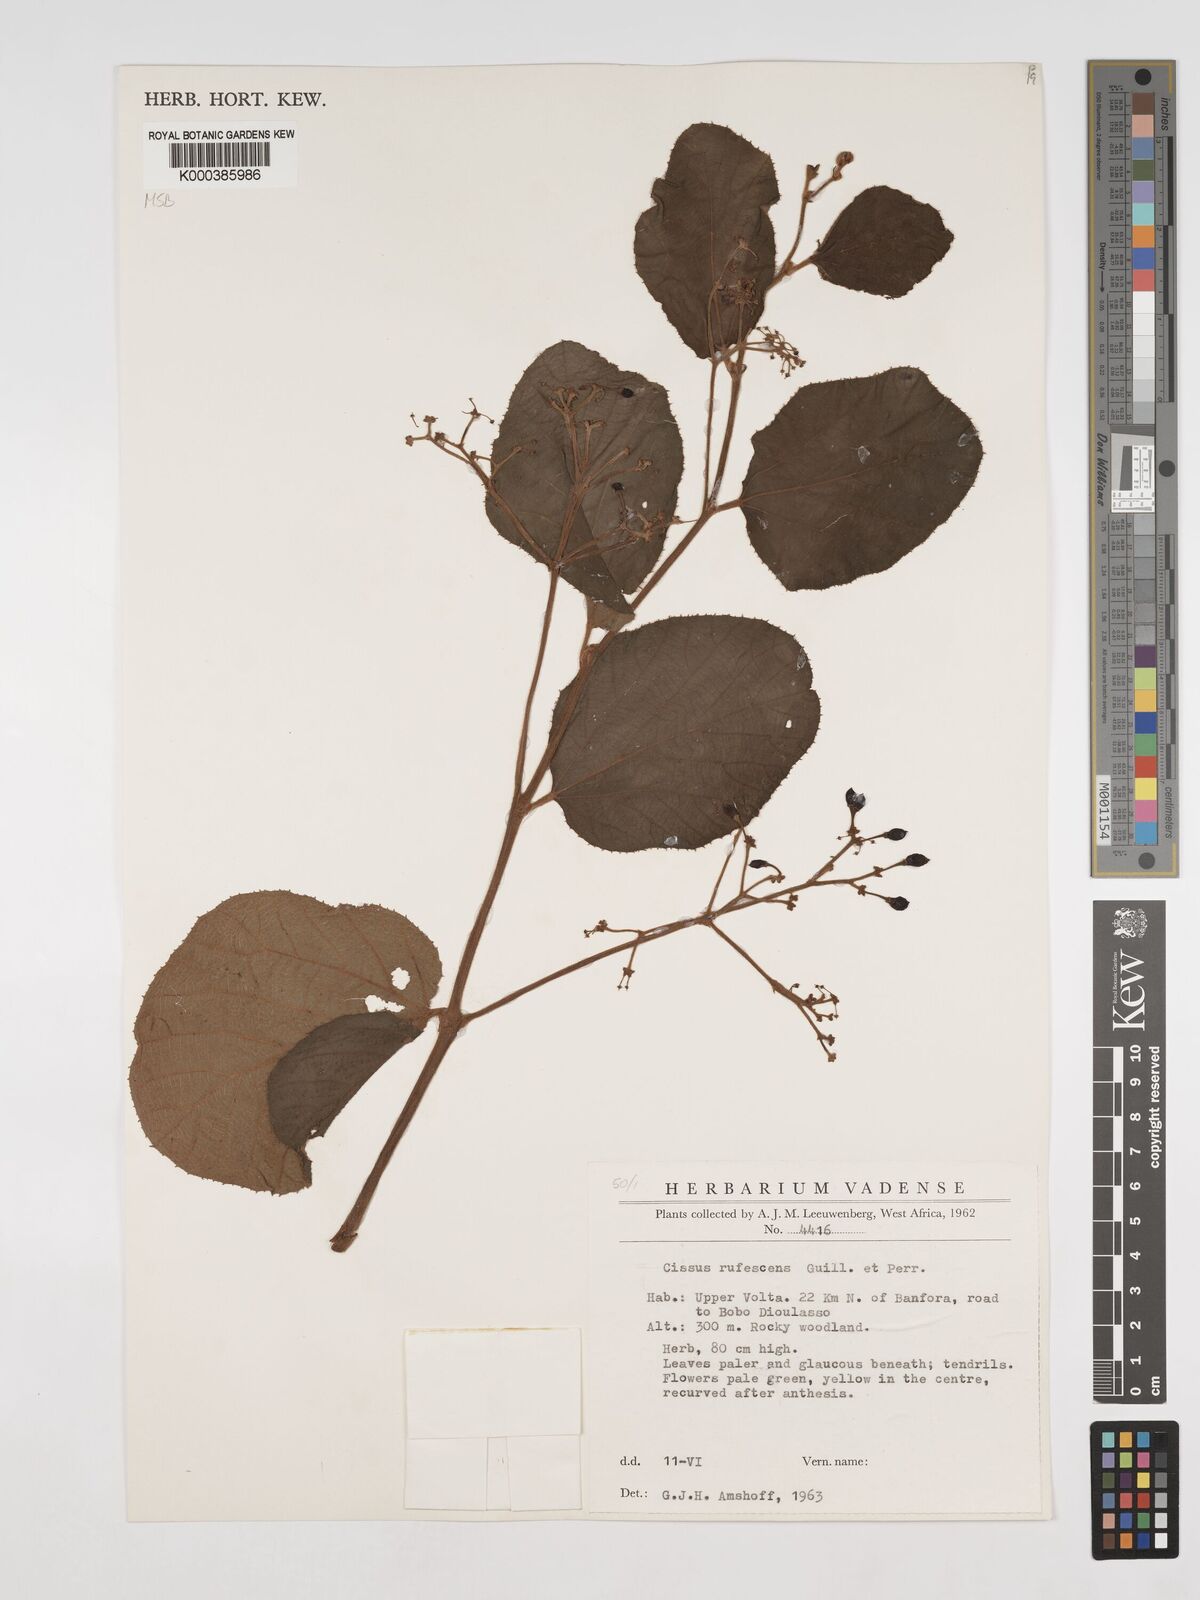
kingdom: Plantae
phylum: Tracheophyta
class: Magnoliopsida
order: Vitales
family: Vitaceae
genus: Cissus
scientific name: Cissus rufescens
